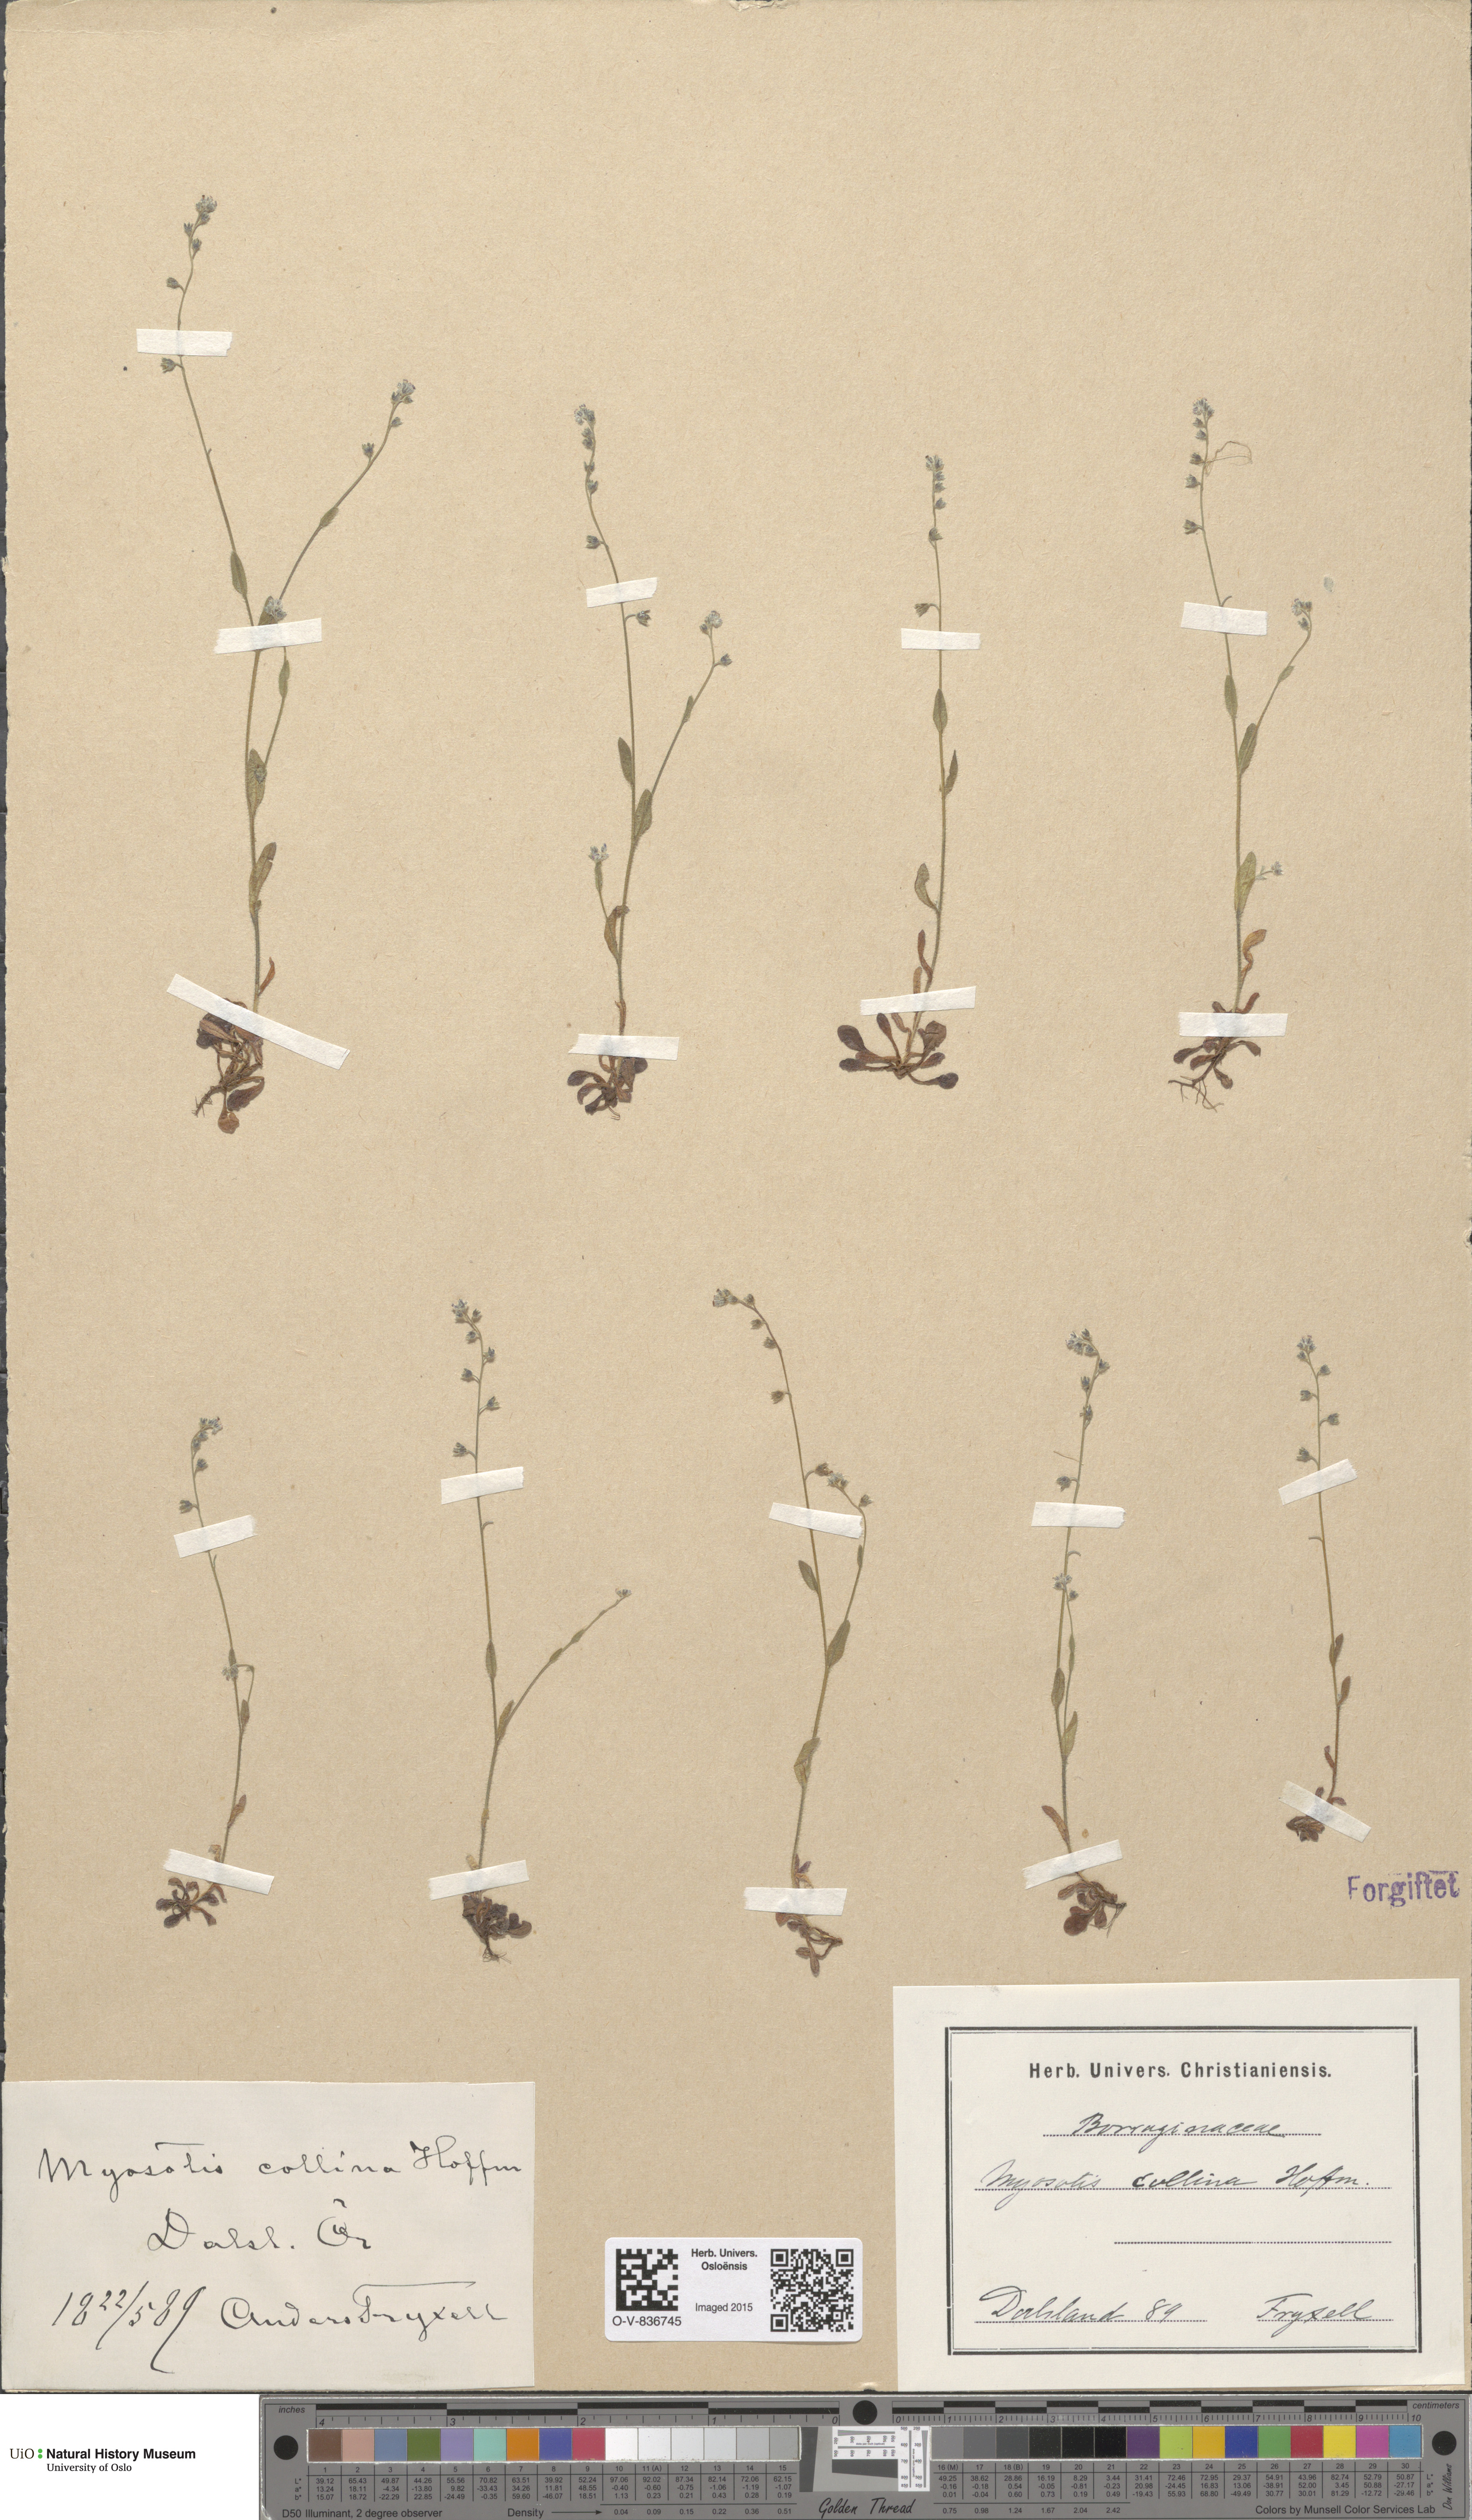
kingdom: Plantae
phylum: Tracheophyta
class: Magnoliopsida
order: Boraginales
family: Boraginaceae
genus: Myosotis
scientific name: Myosotis ramosissima
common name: Early forget-me-not
